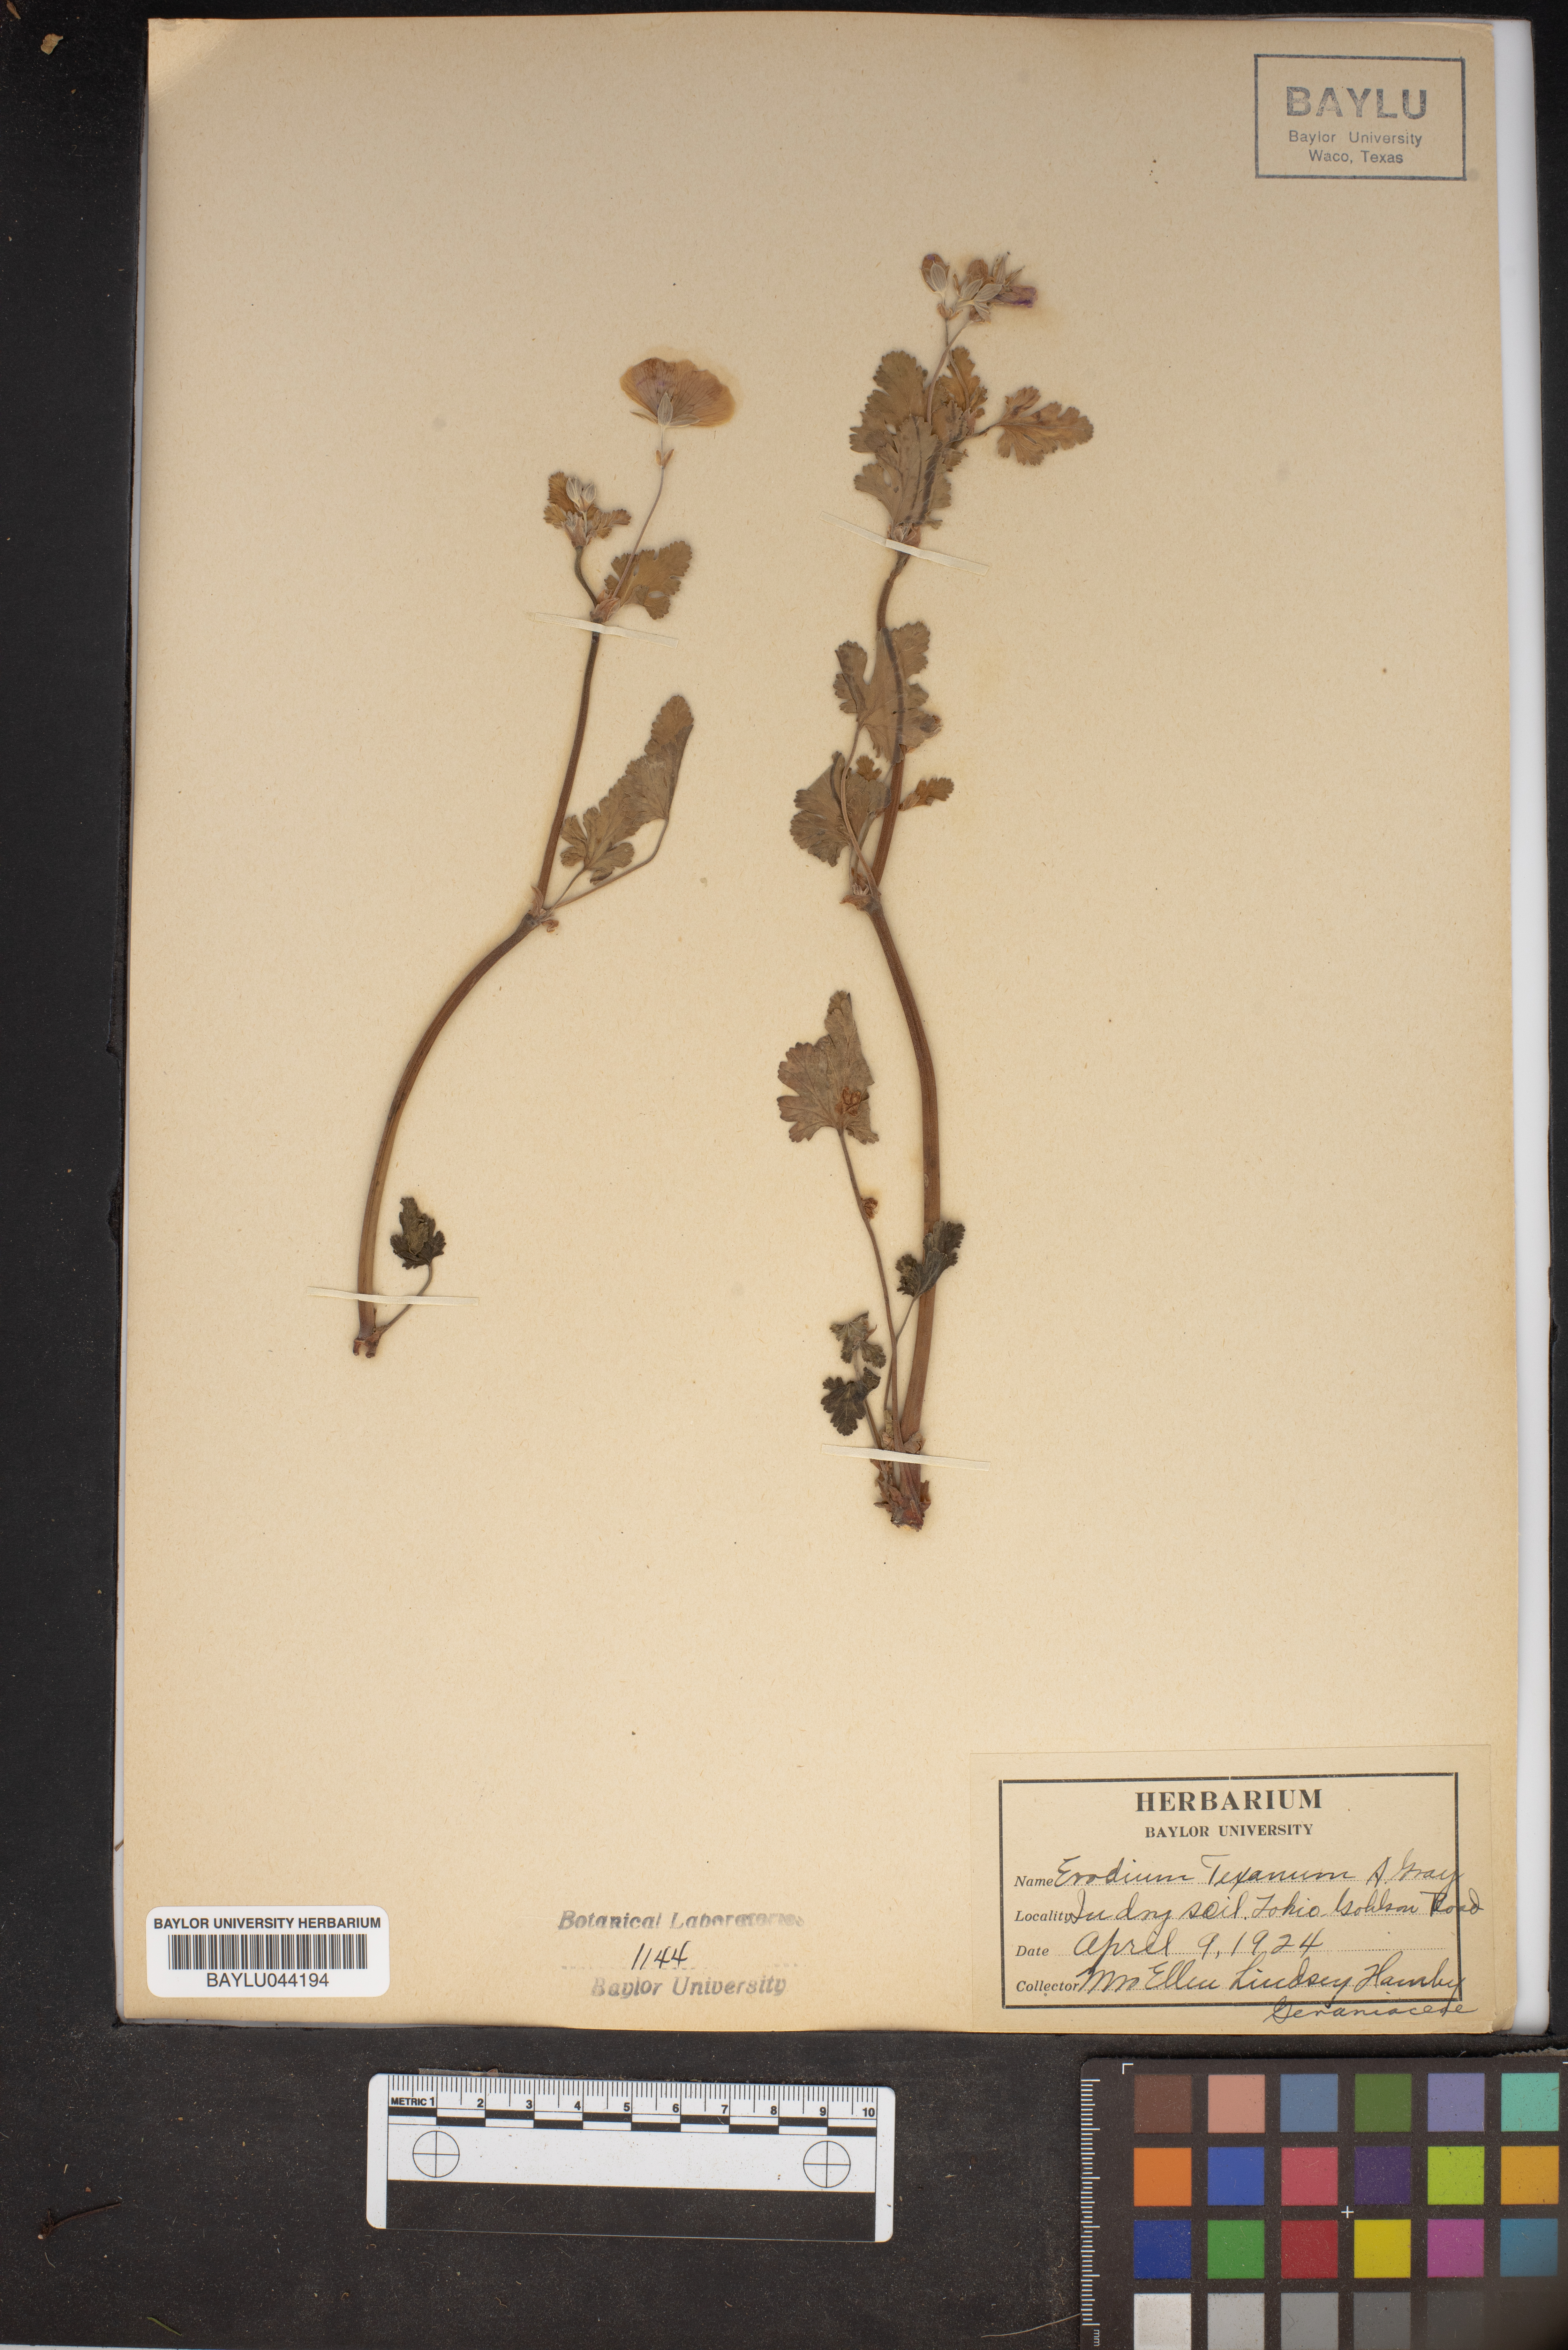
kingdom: Plantae
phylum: Tracheophyta
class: Magnoliopsida
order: Geraniales
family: Geraniaceae
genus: Erodium
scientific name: Erodium texanum
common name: Texas stork's-bill
